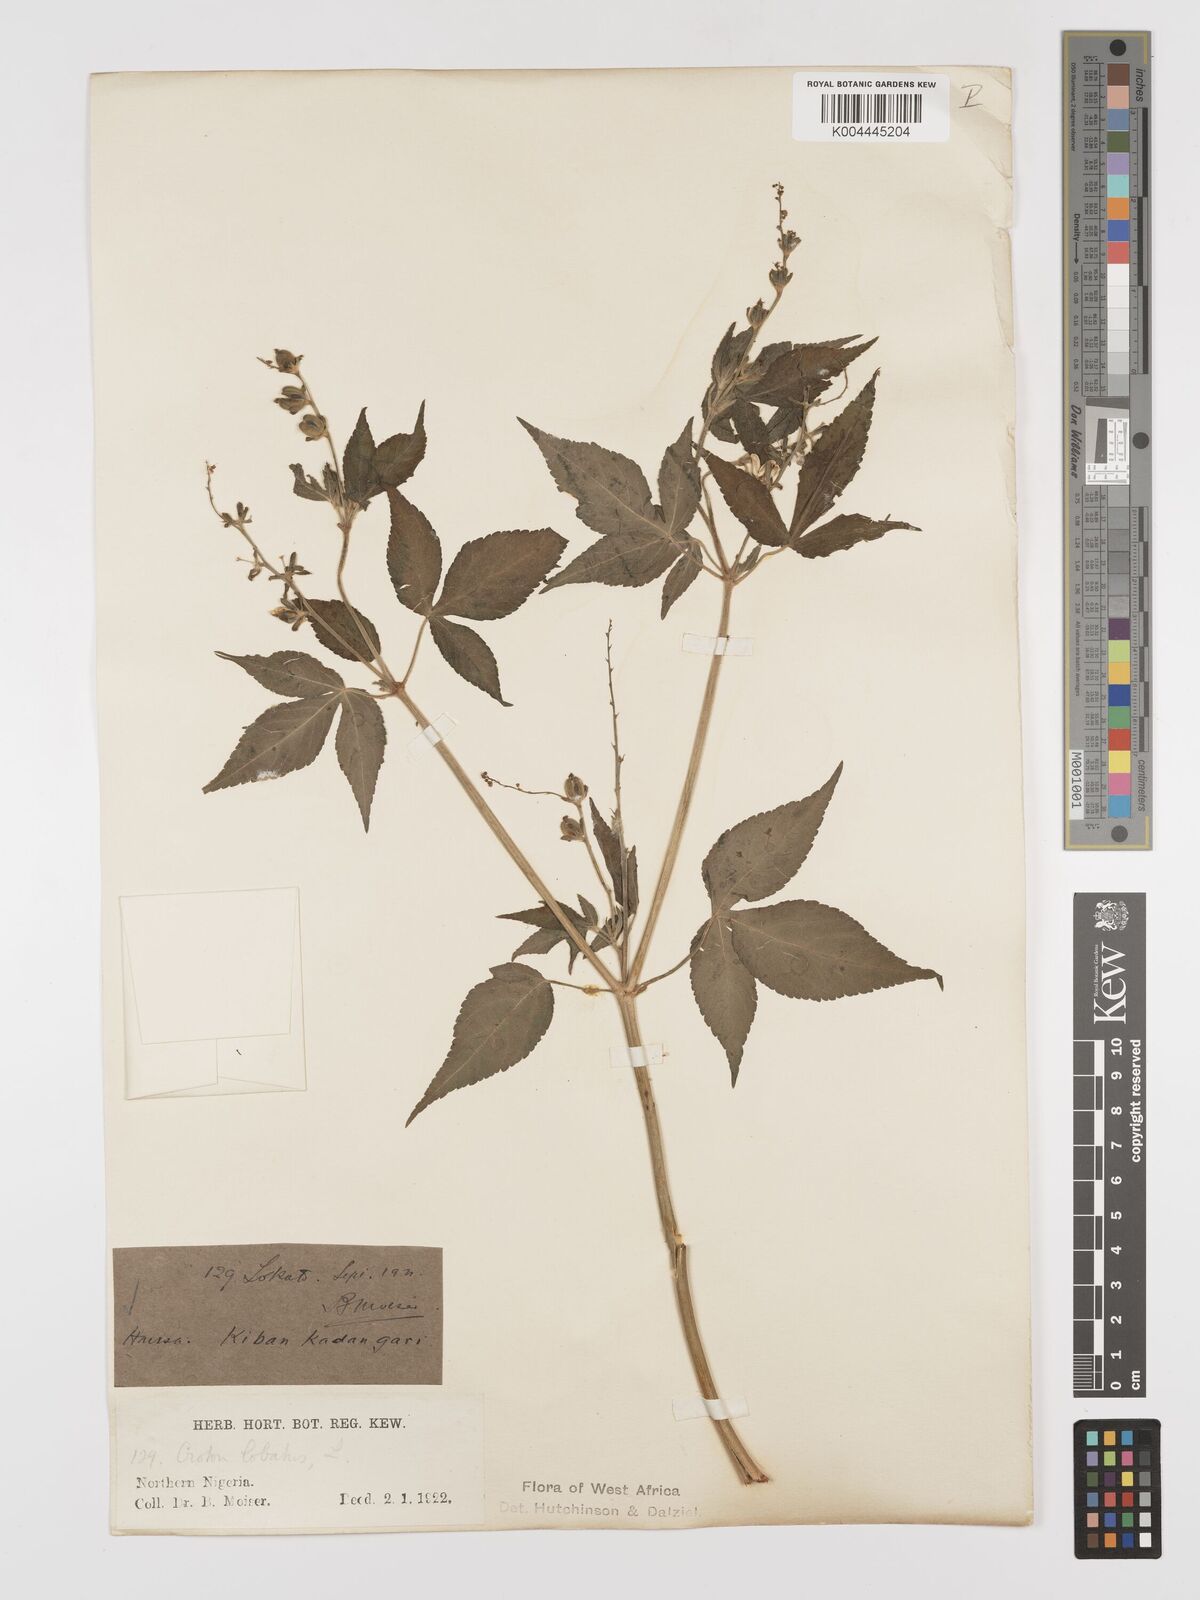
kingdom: Plantae
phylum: Tracheophyta
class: Magnoliopsida
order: Malpighiales
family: Euphorbiaceae
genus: Astraea
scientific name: Astraea lobata
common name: Lobed croton
